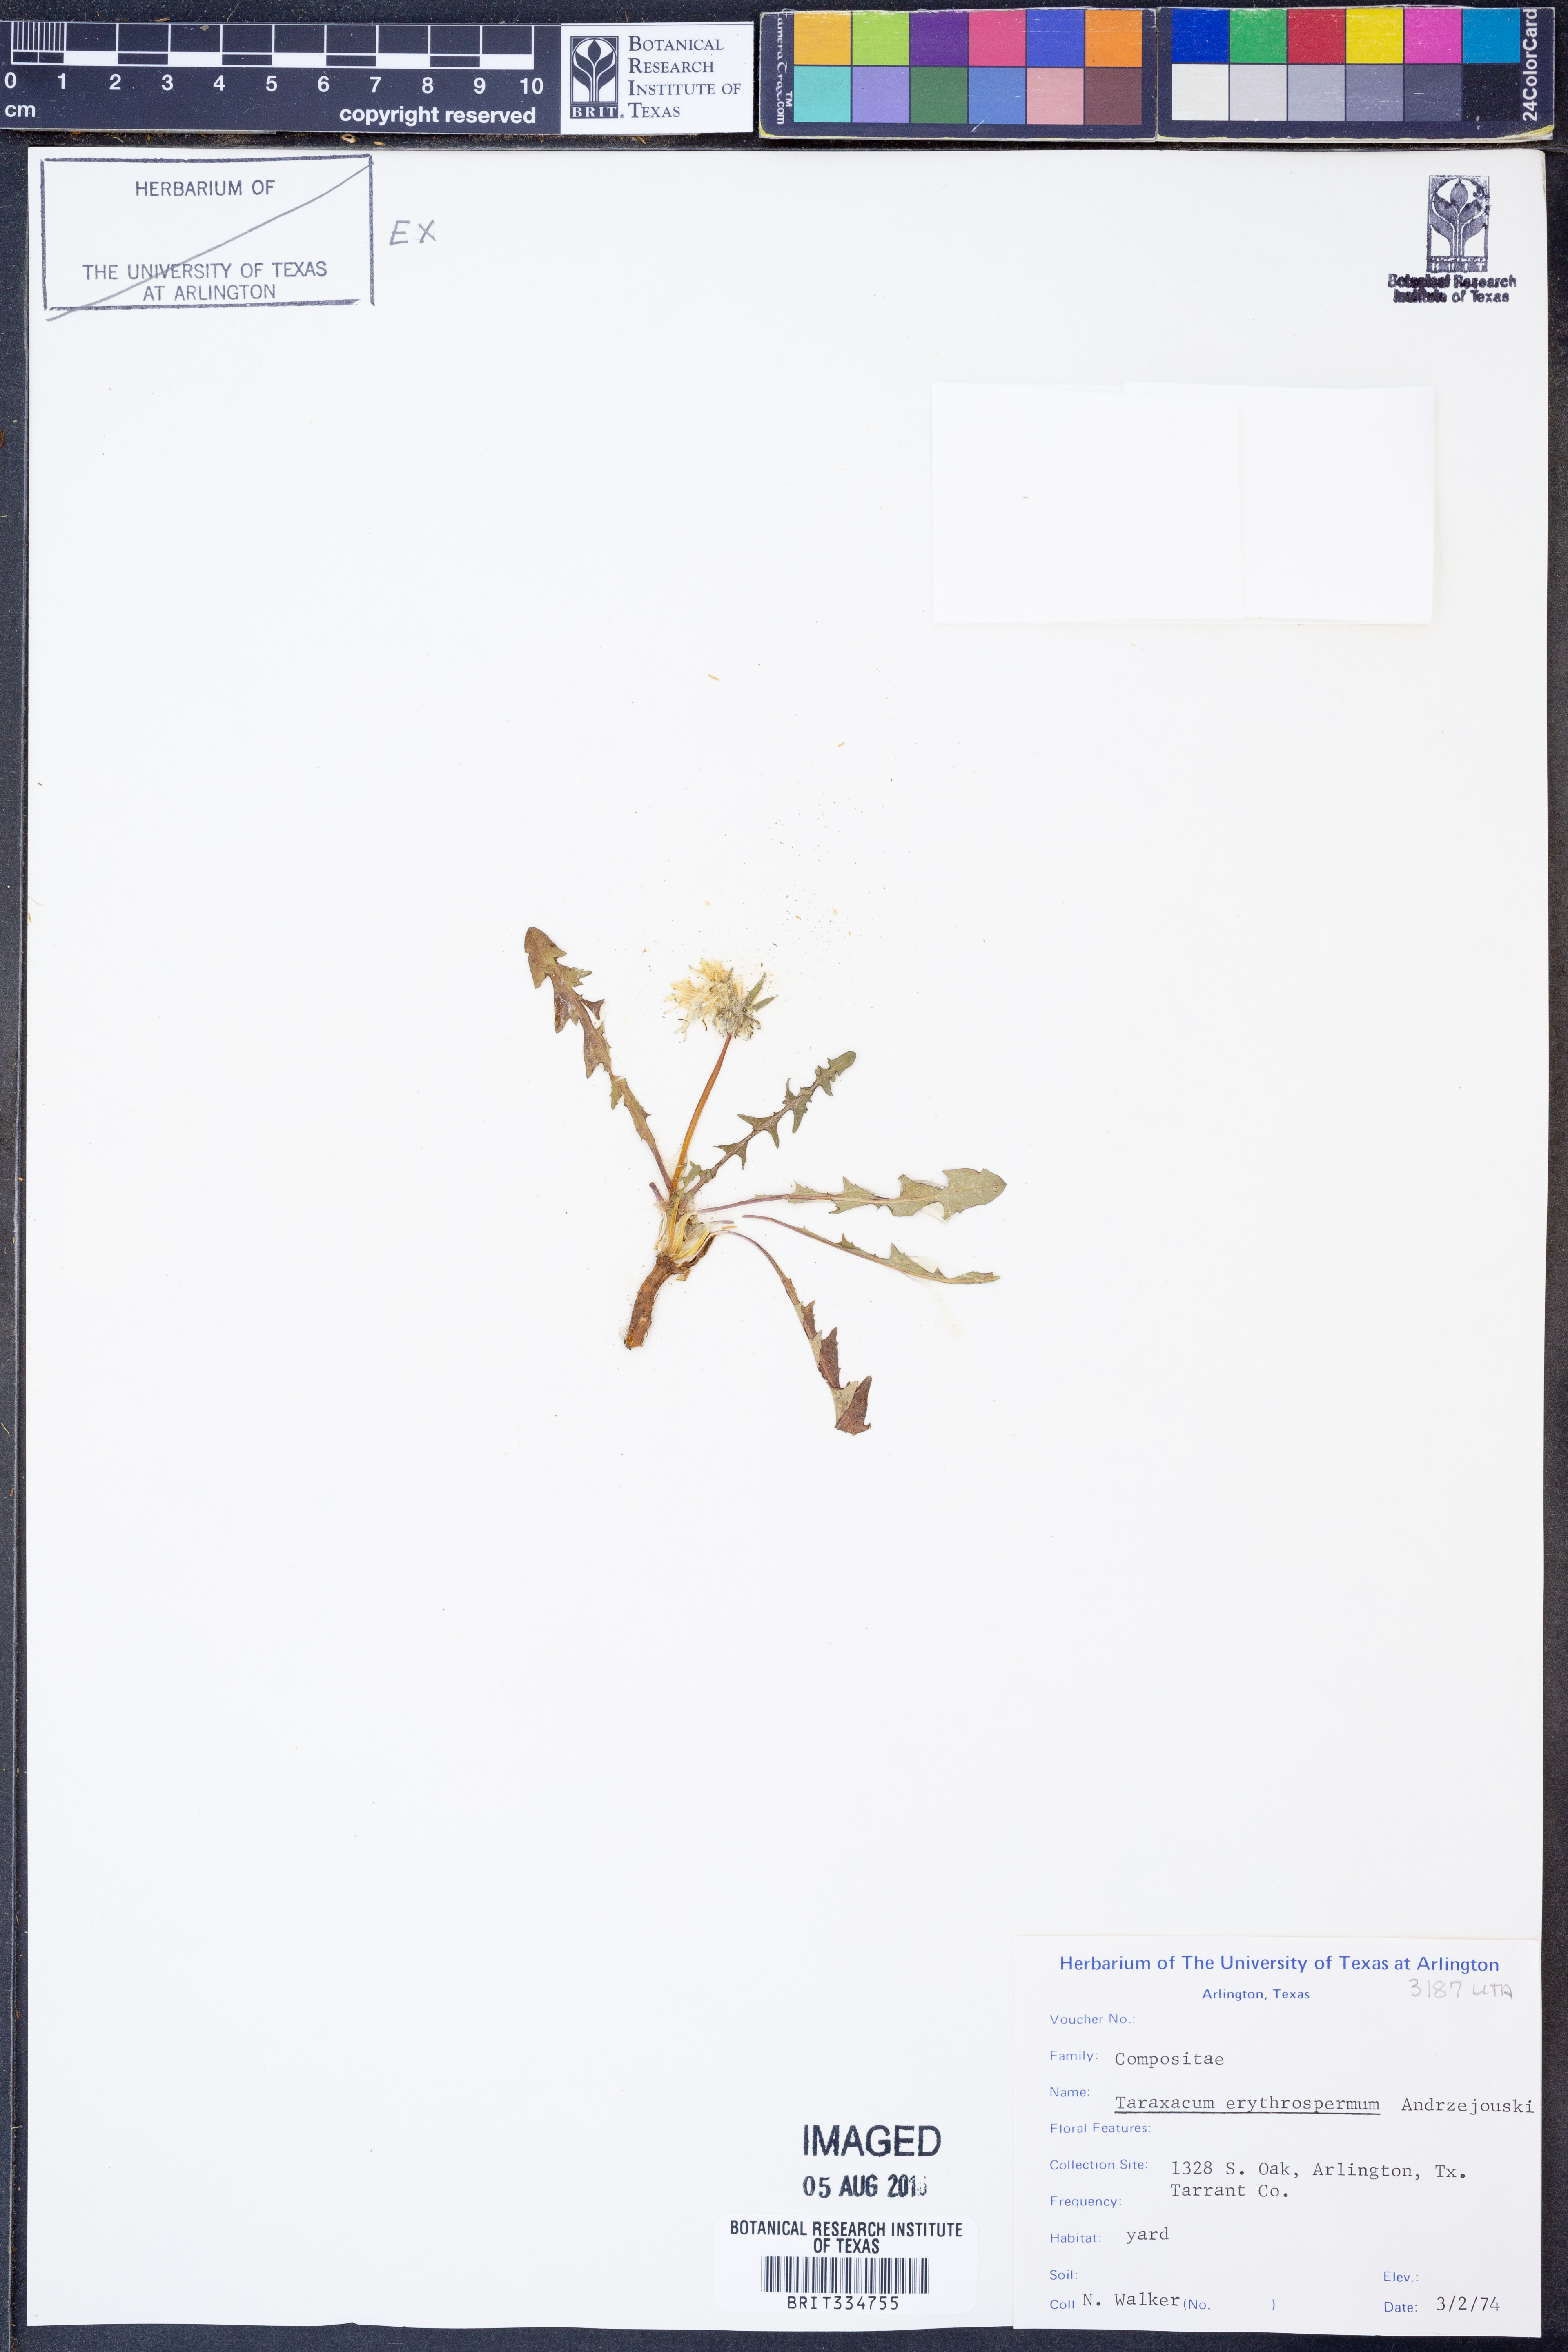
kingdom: Plantae
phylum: Tracheophyta
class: Magnoliopsida
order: Asterales
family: Asteraceae
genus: Taraxacum
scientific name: Taraxacum erythrospermum
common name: Rock dandelion
